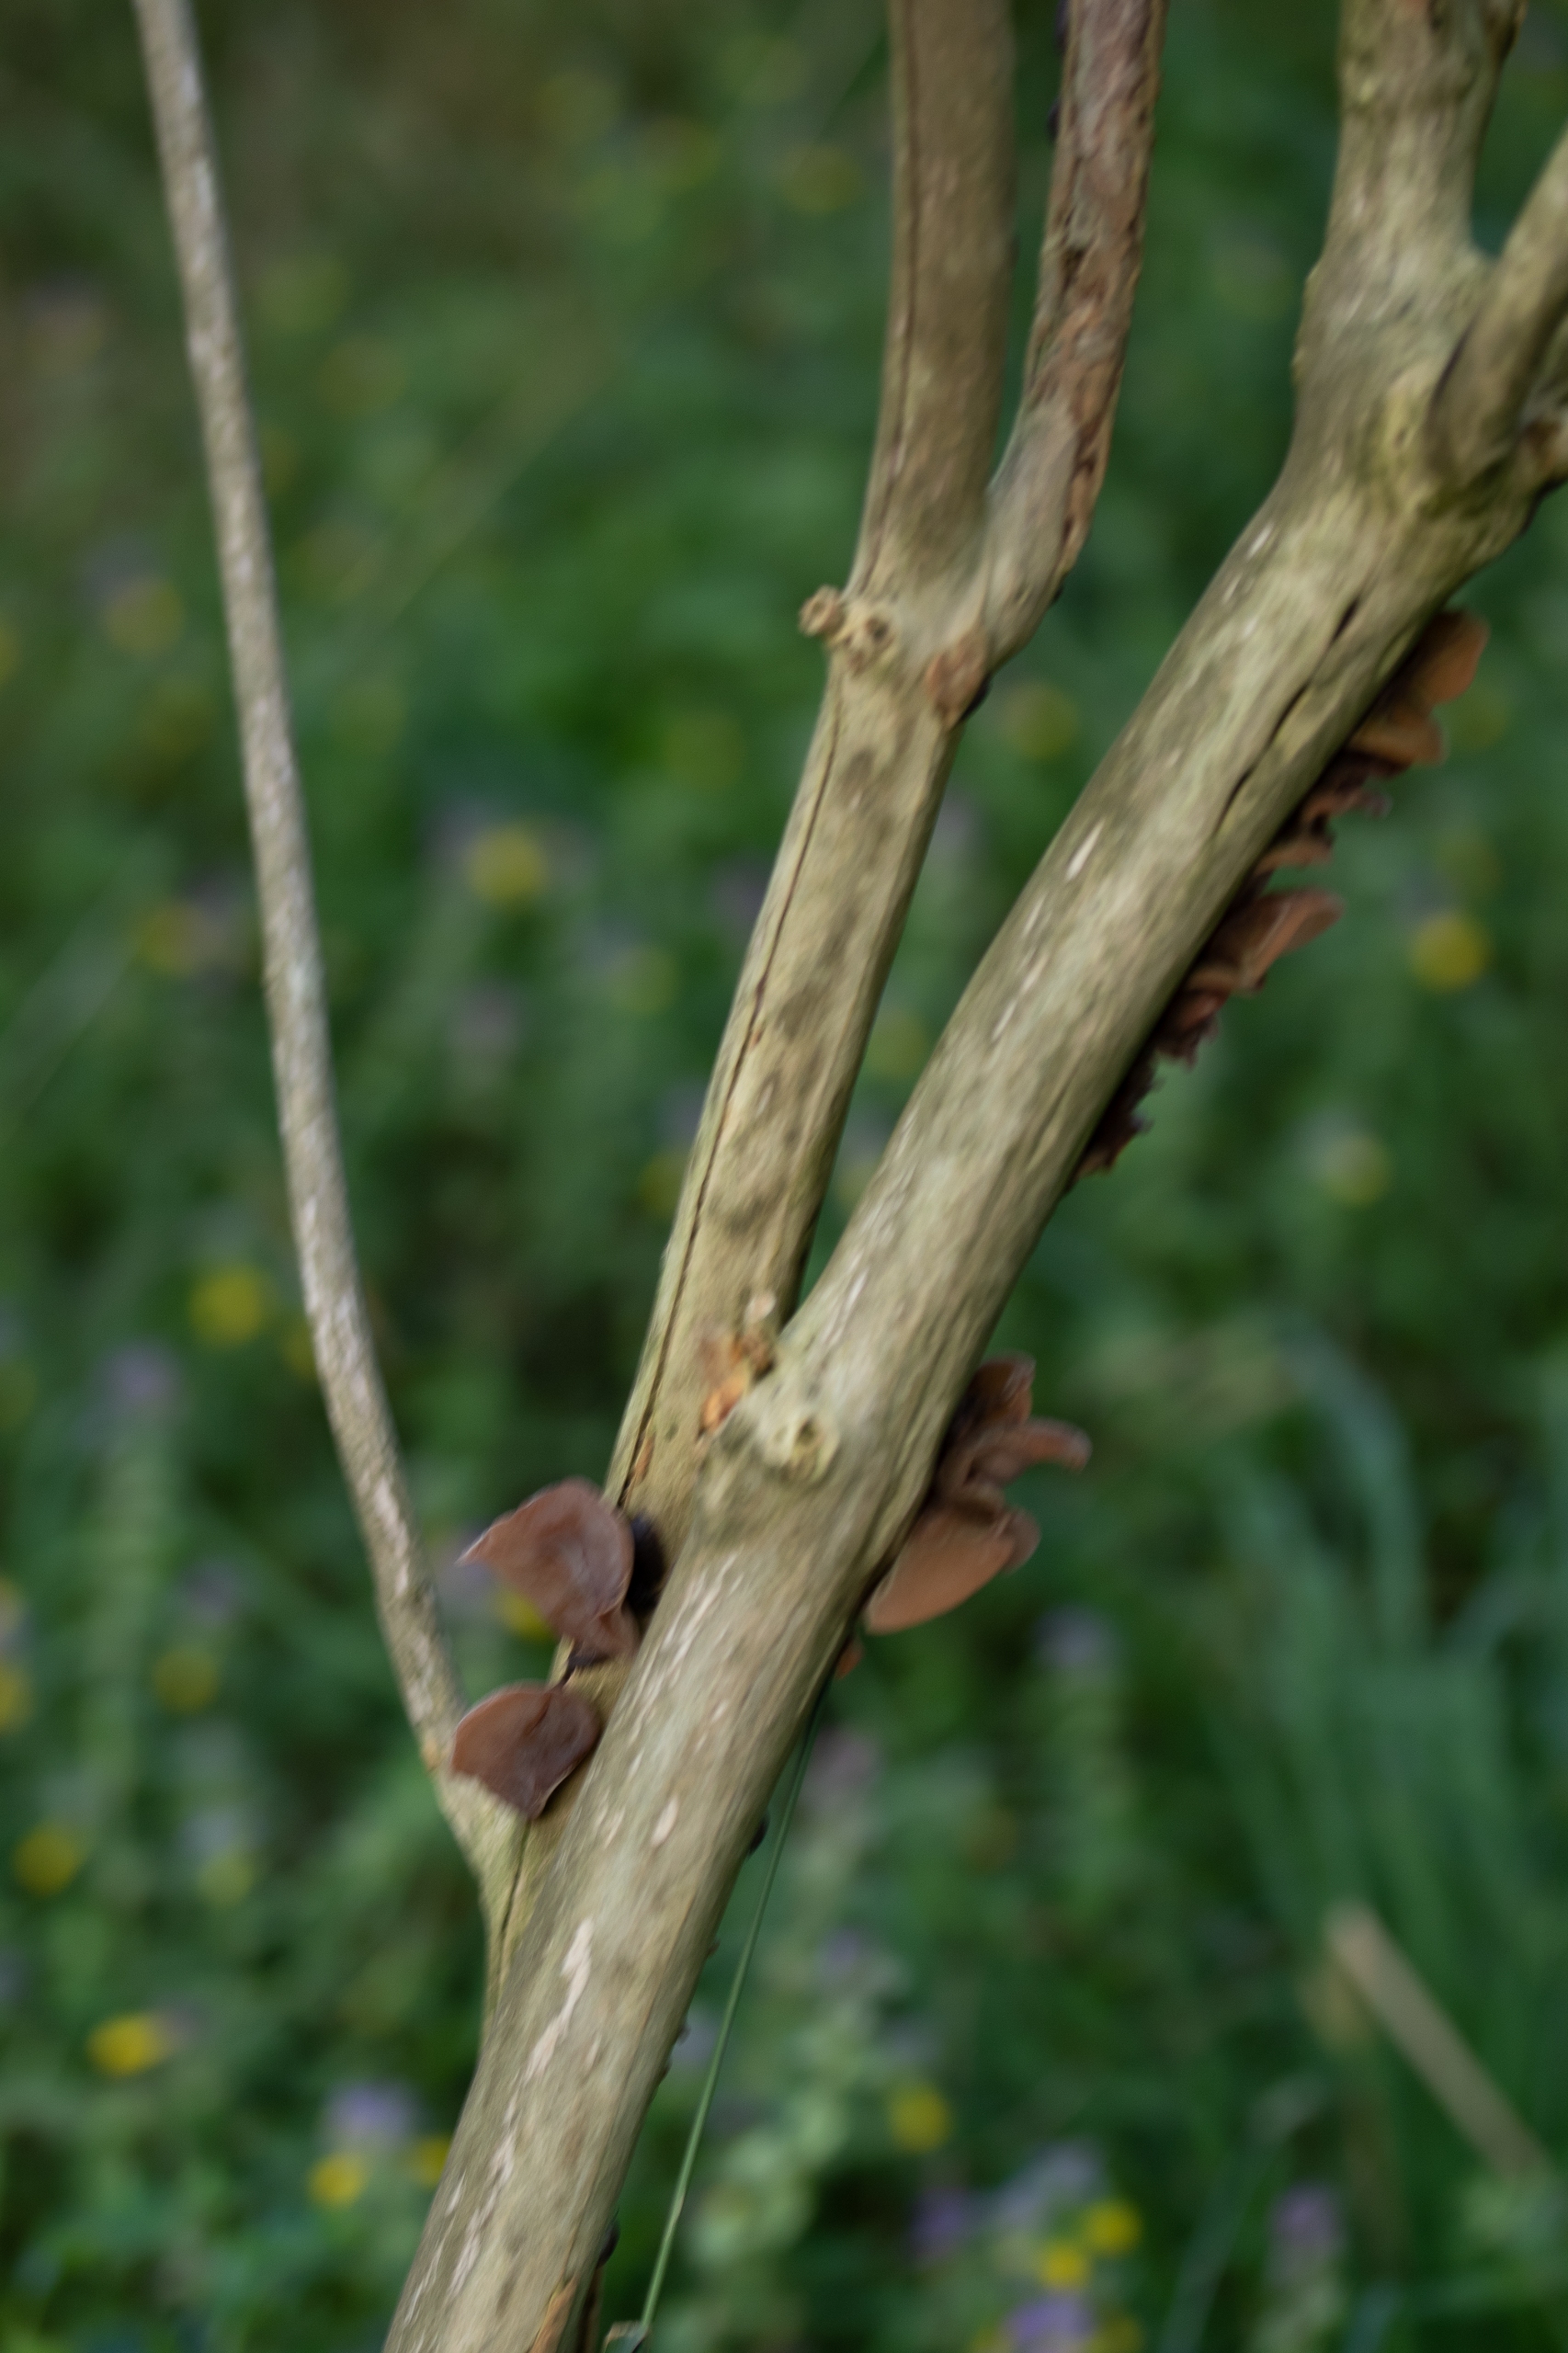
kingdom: Fungi
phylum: Basidiomycota
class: Agaricomycetes
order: Auriculariales
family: Auriculariaceae
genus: Auricularia
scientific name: Auricularia auricula-judae
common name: Almindelig judasøre
